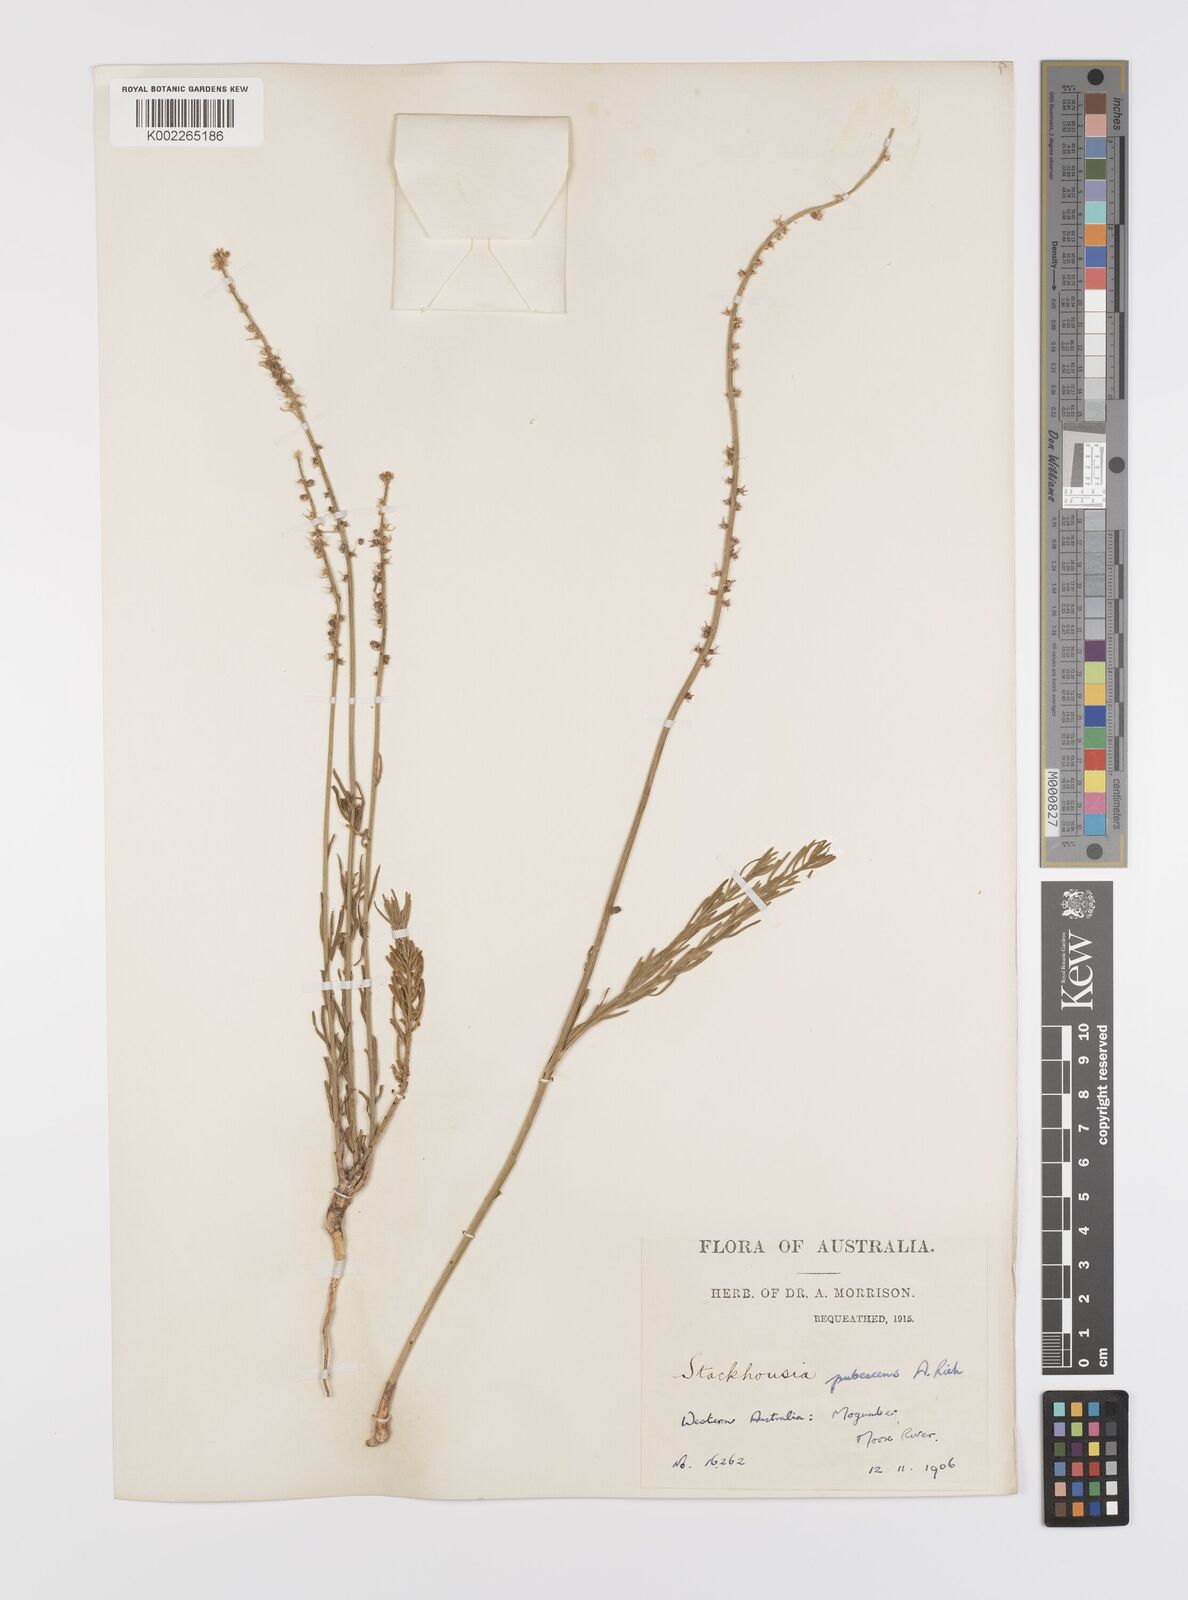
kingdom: Plantae
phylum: Tracheophyta
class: Magnoliopsida
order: Celastrales
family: Celastraceae
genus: Stackhousia
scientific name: Stackhousia monogyna
